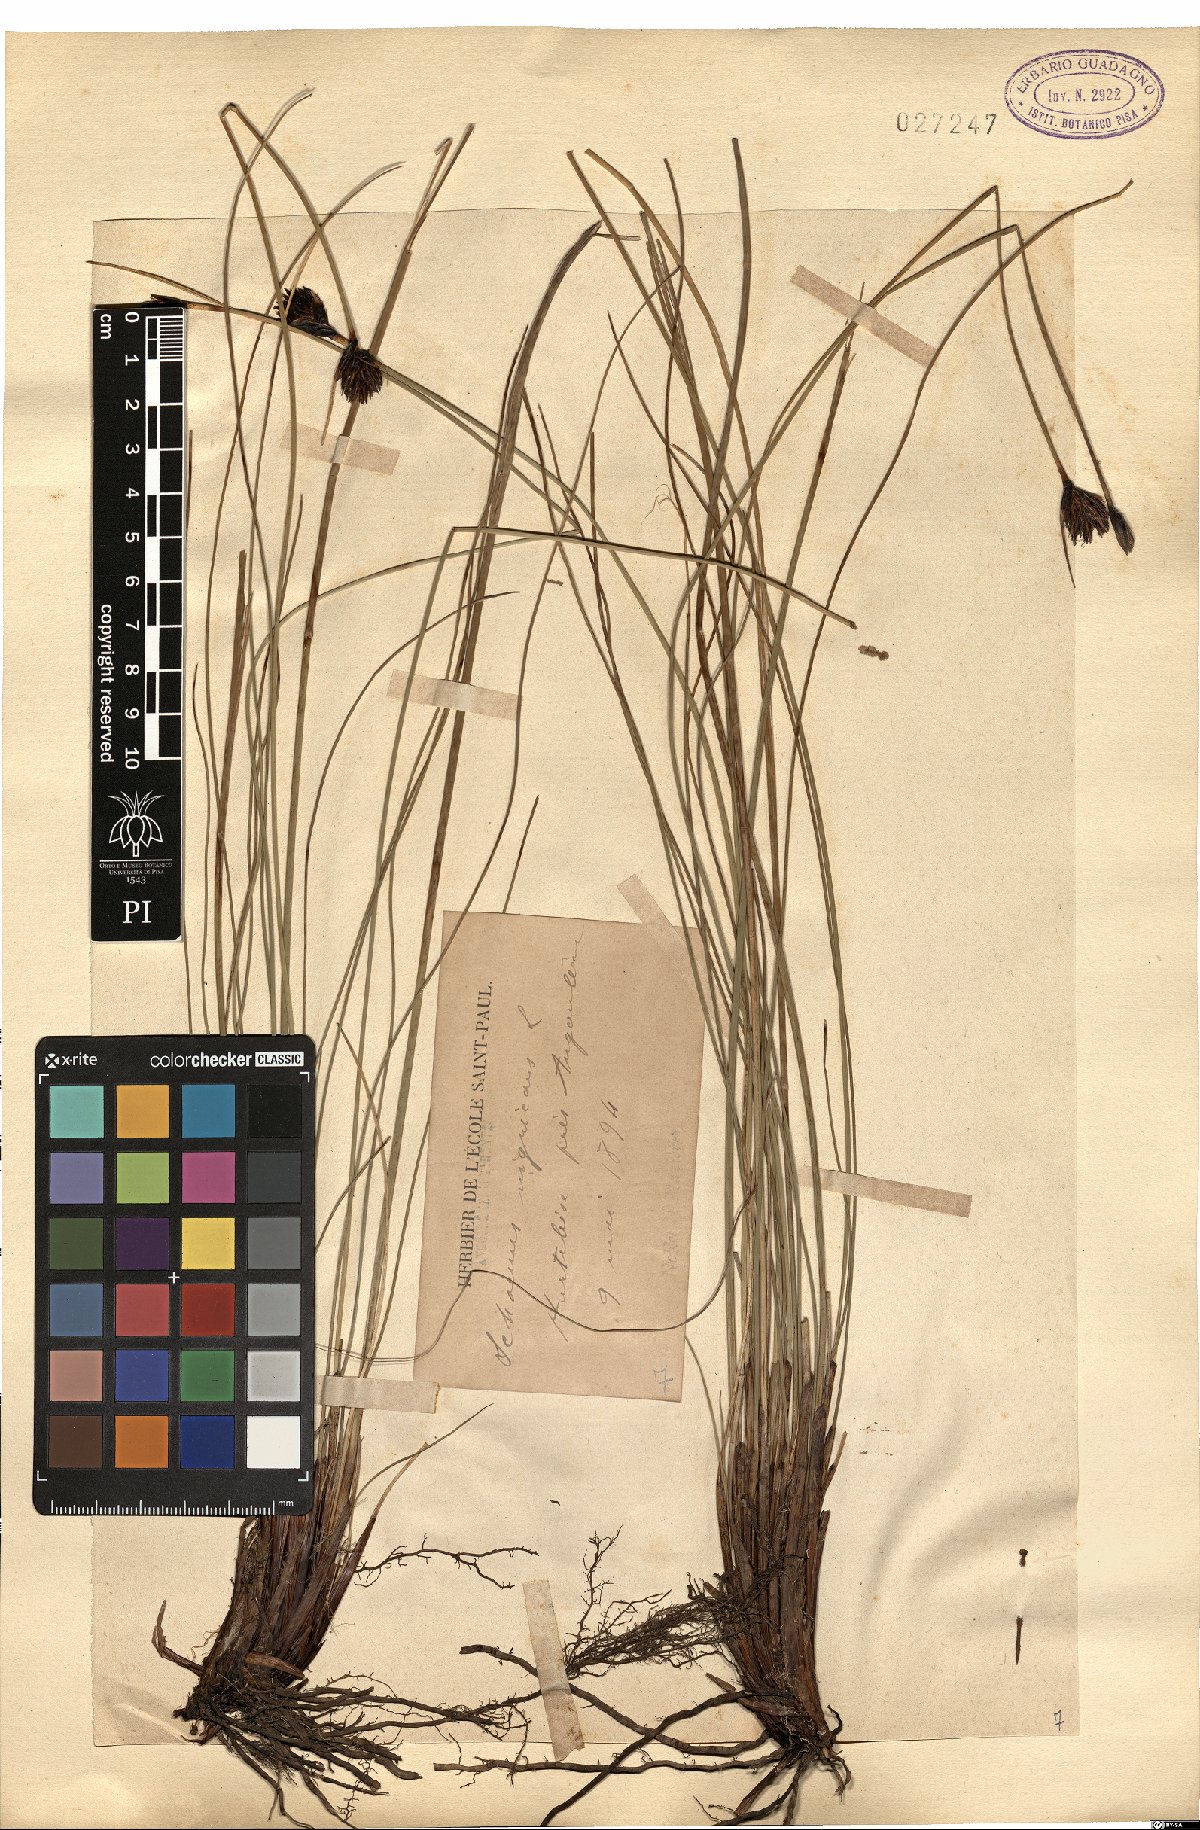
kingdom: Plantae
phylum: Tracheophyta
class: Liliopsida
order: Poales
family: Cyperaceae
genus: Schoenus
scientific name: Schoenus nigricans
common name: Black bog-rush
